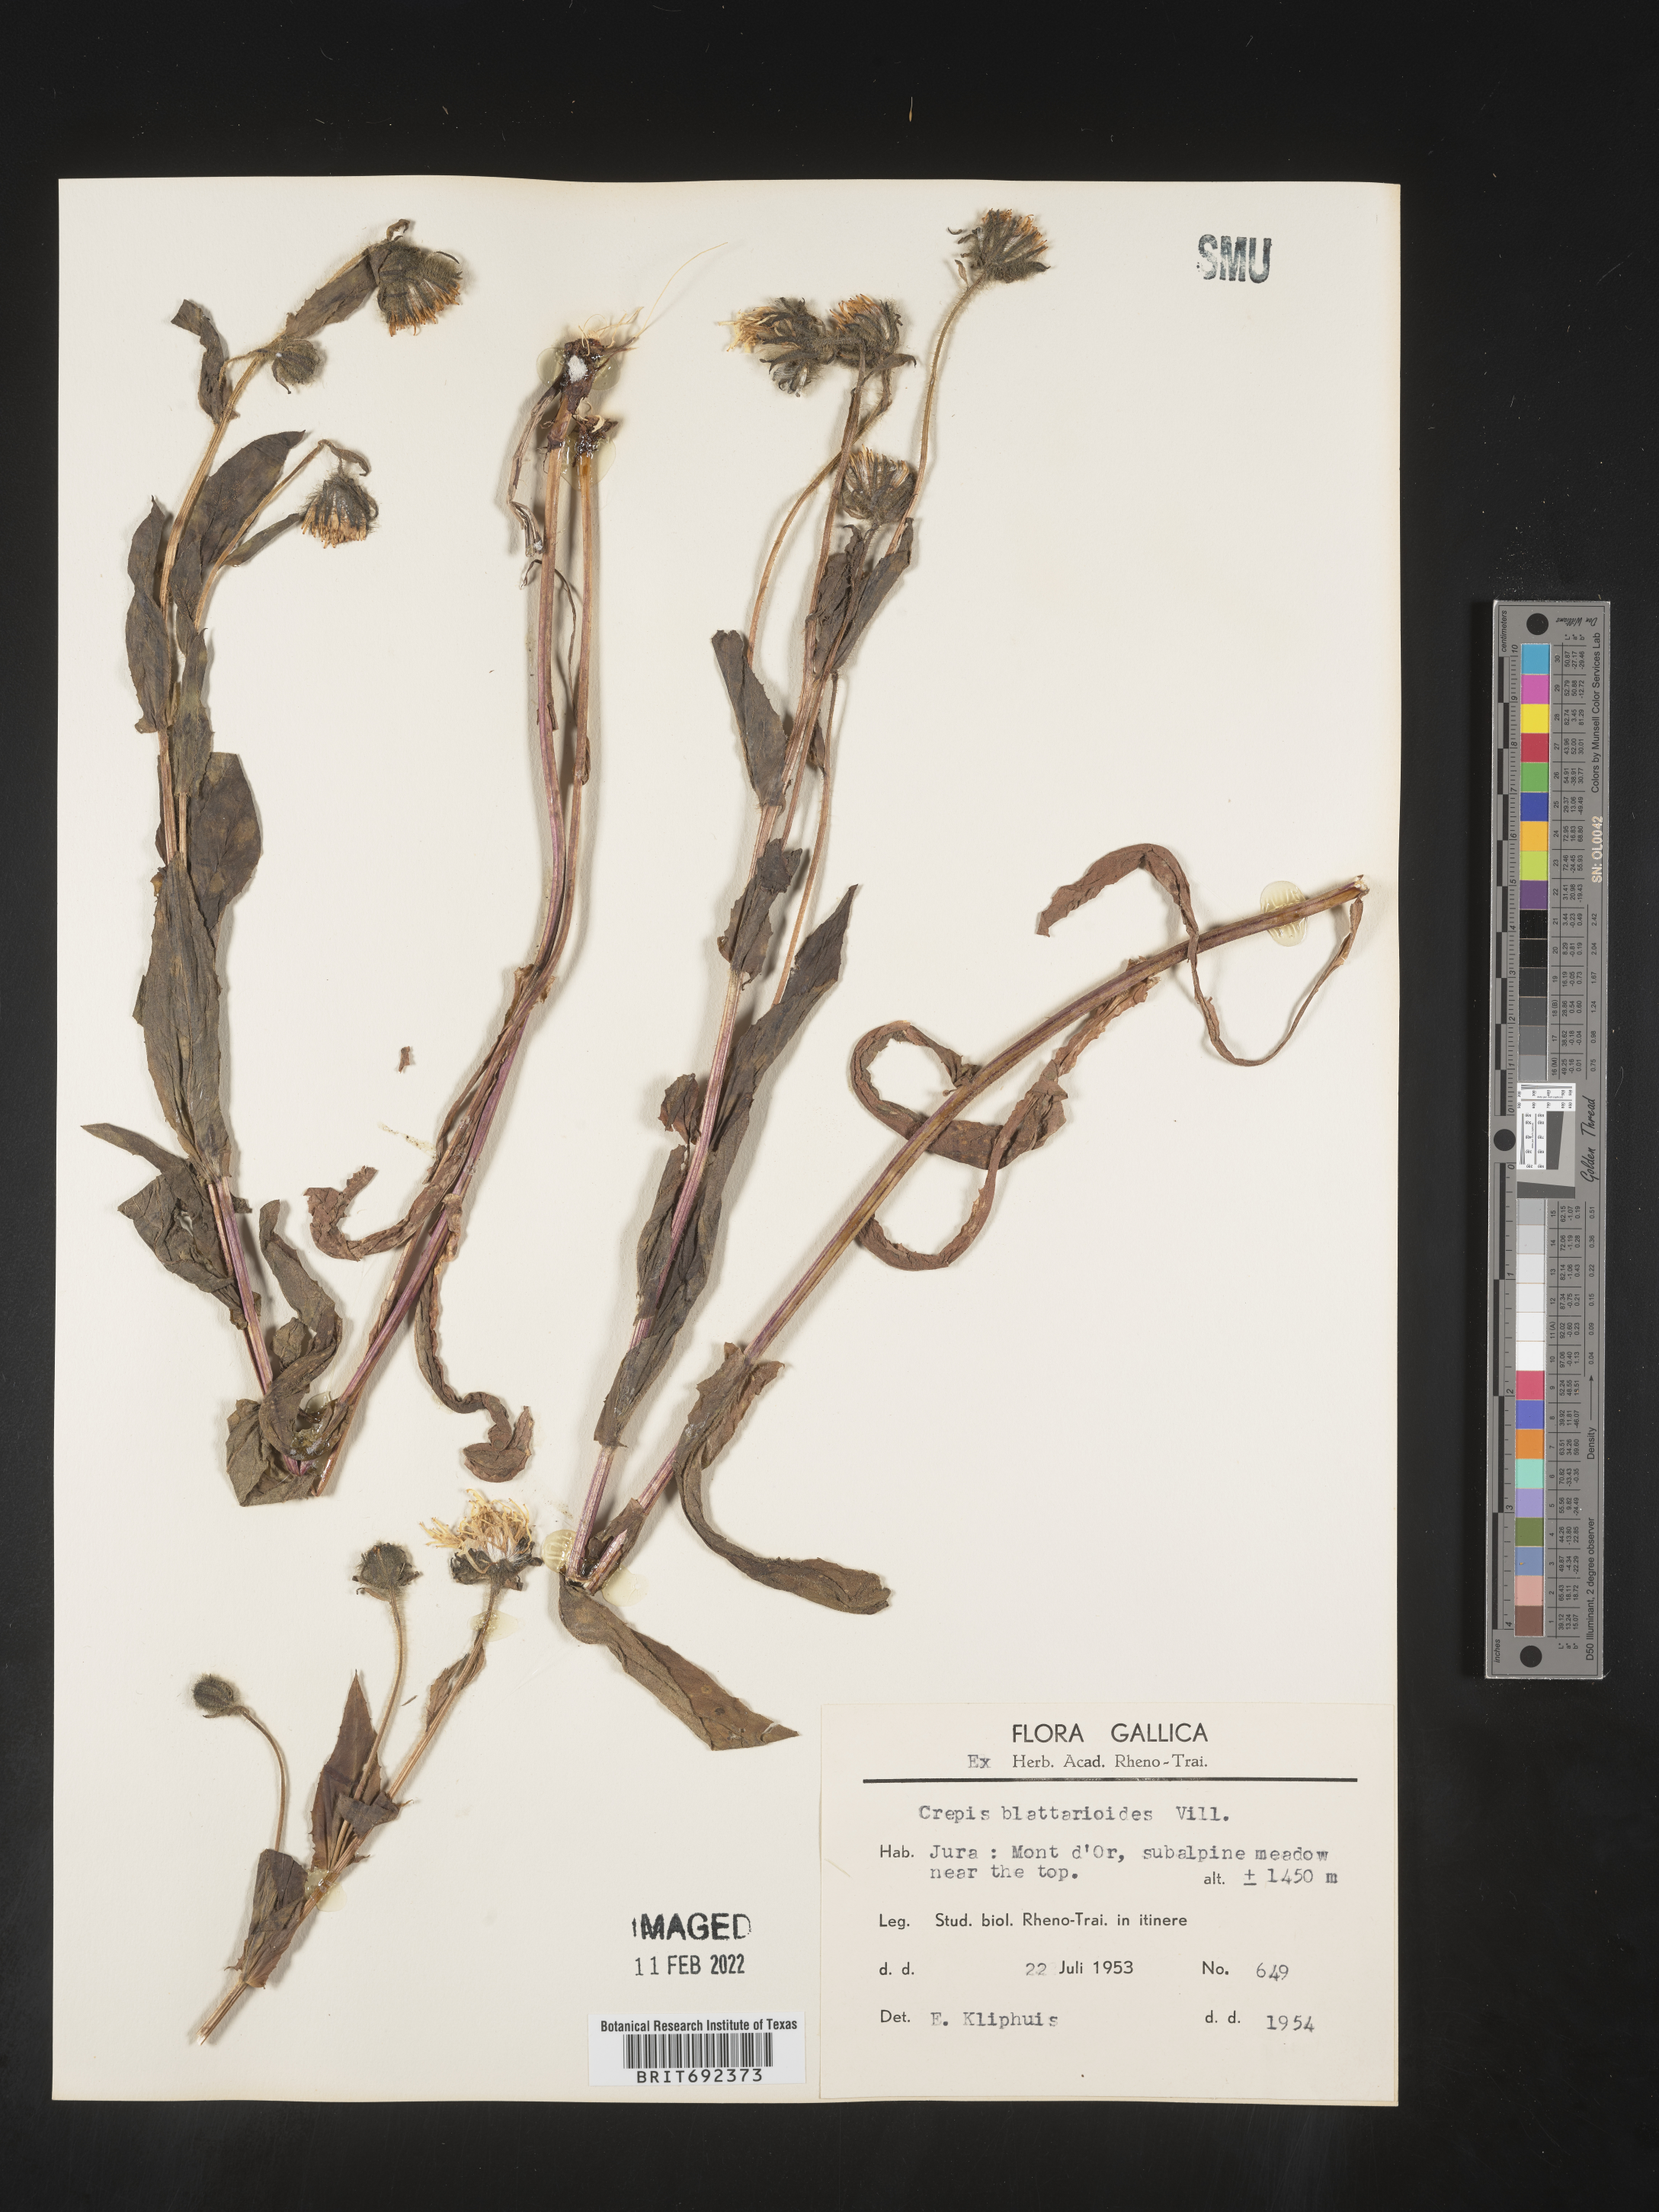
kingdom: Plantae
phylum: Tracheophyta
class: Magnoliopsida
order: Asterales
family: Asteraceae
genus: Crepis
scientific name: Crepis
